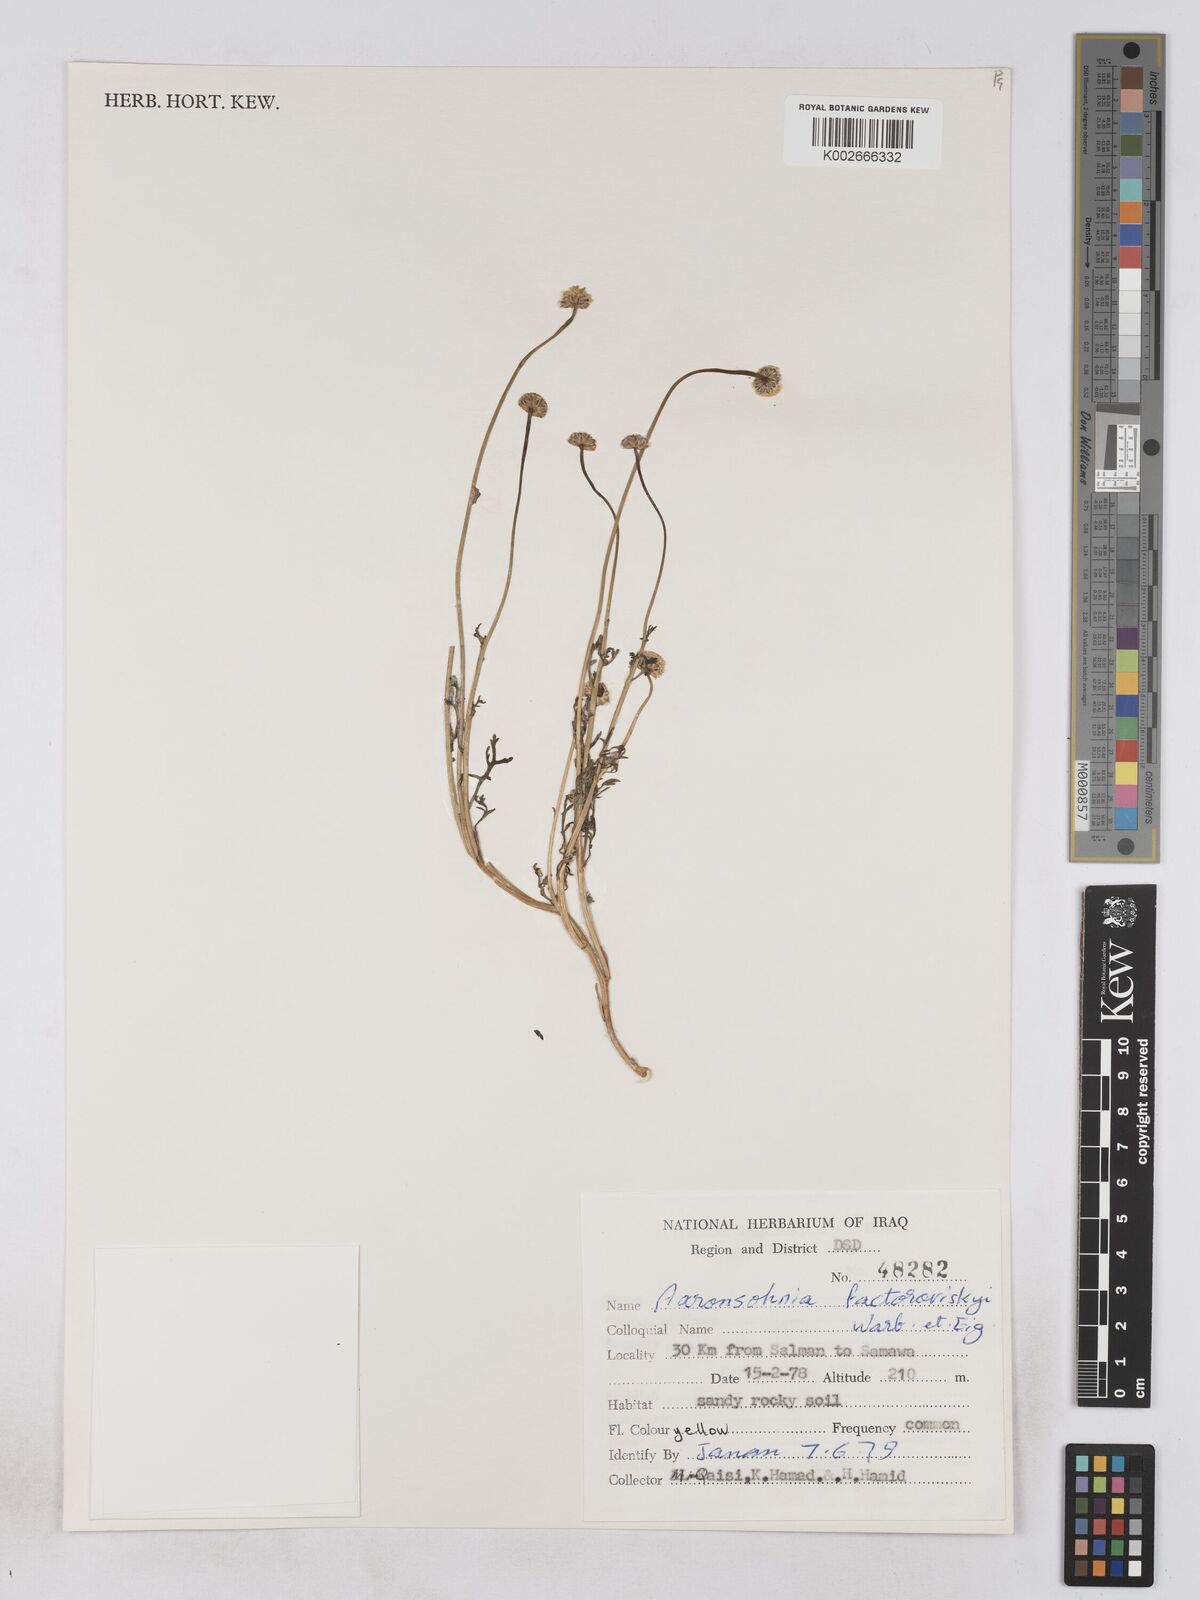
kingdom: Plantae
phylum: Tracheophyta
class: Magnoliopsida
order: Asterales
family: Asteraceae
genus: Otoglyphis
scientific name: Otoglyphis factorovskyi
